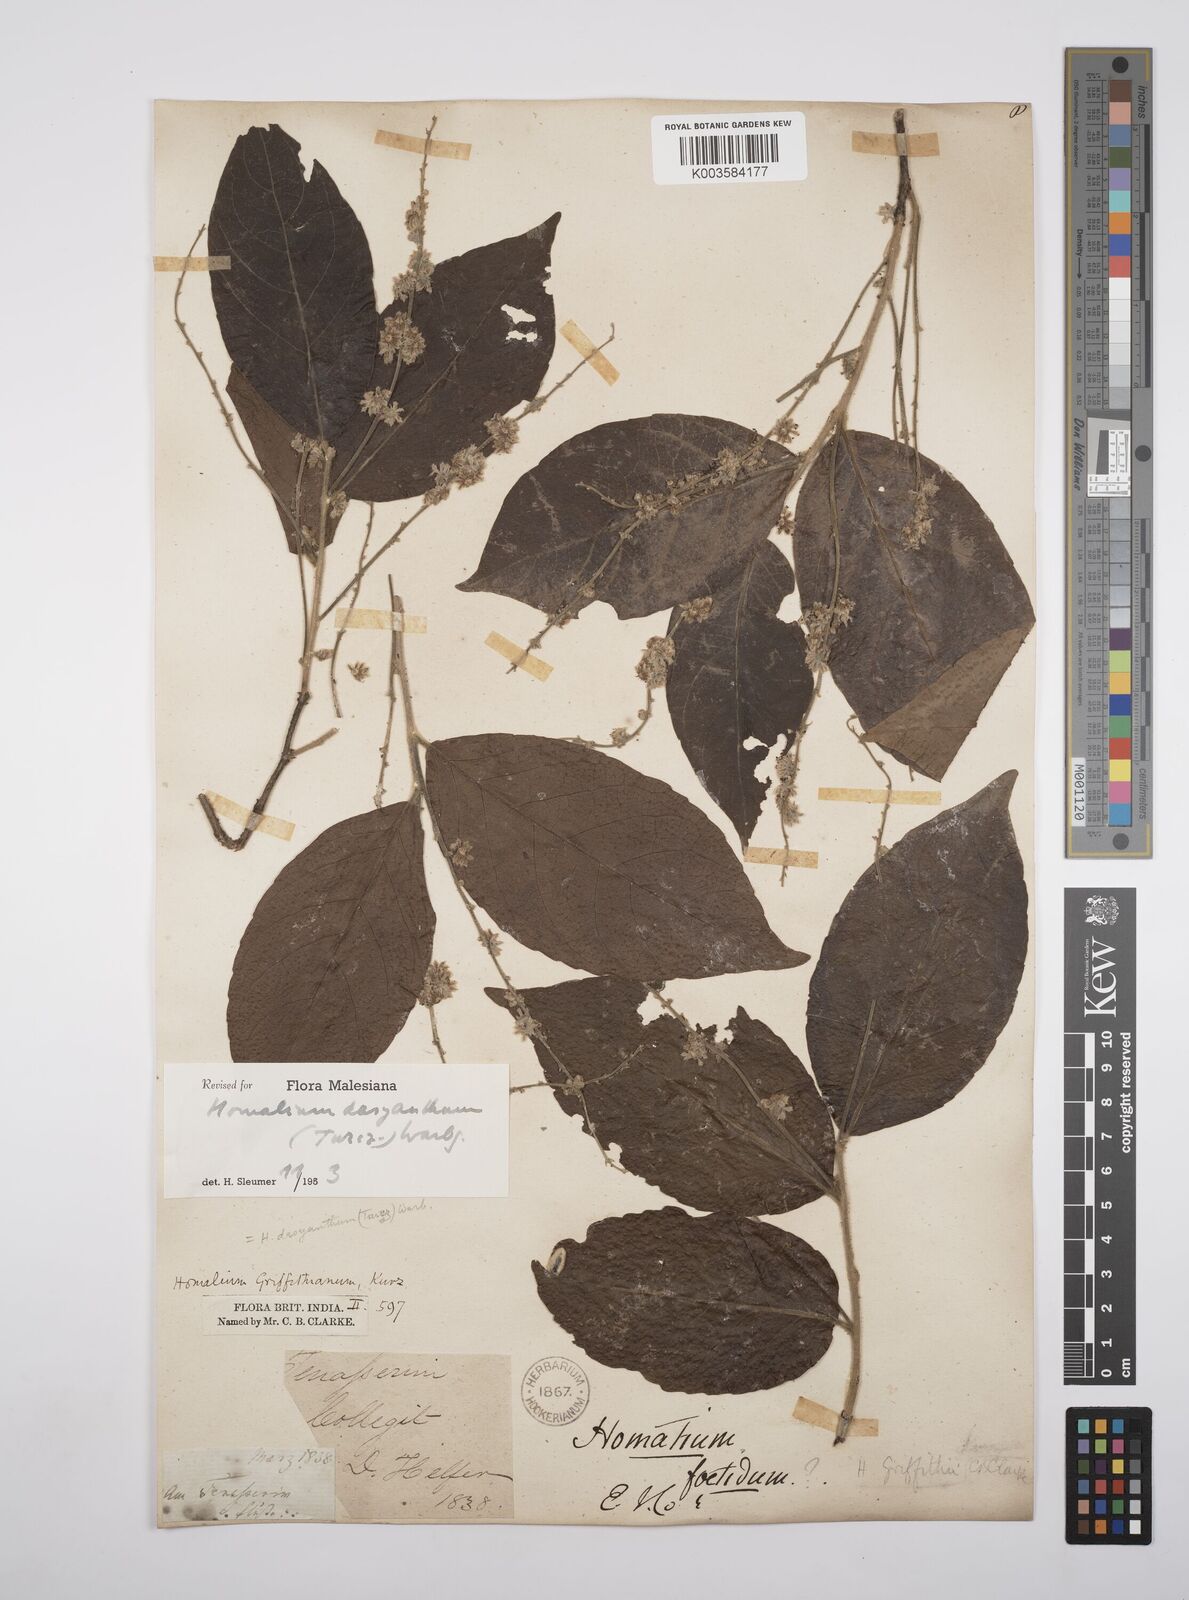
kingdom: Plantae
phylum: Tracheophyta
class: Magnoliopsida
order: Malpighiales
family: Salicaceae
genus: Homalium
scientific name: Homalium dasyanthum
